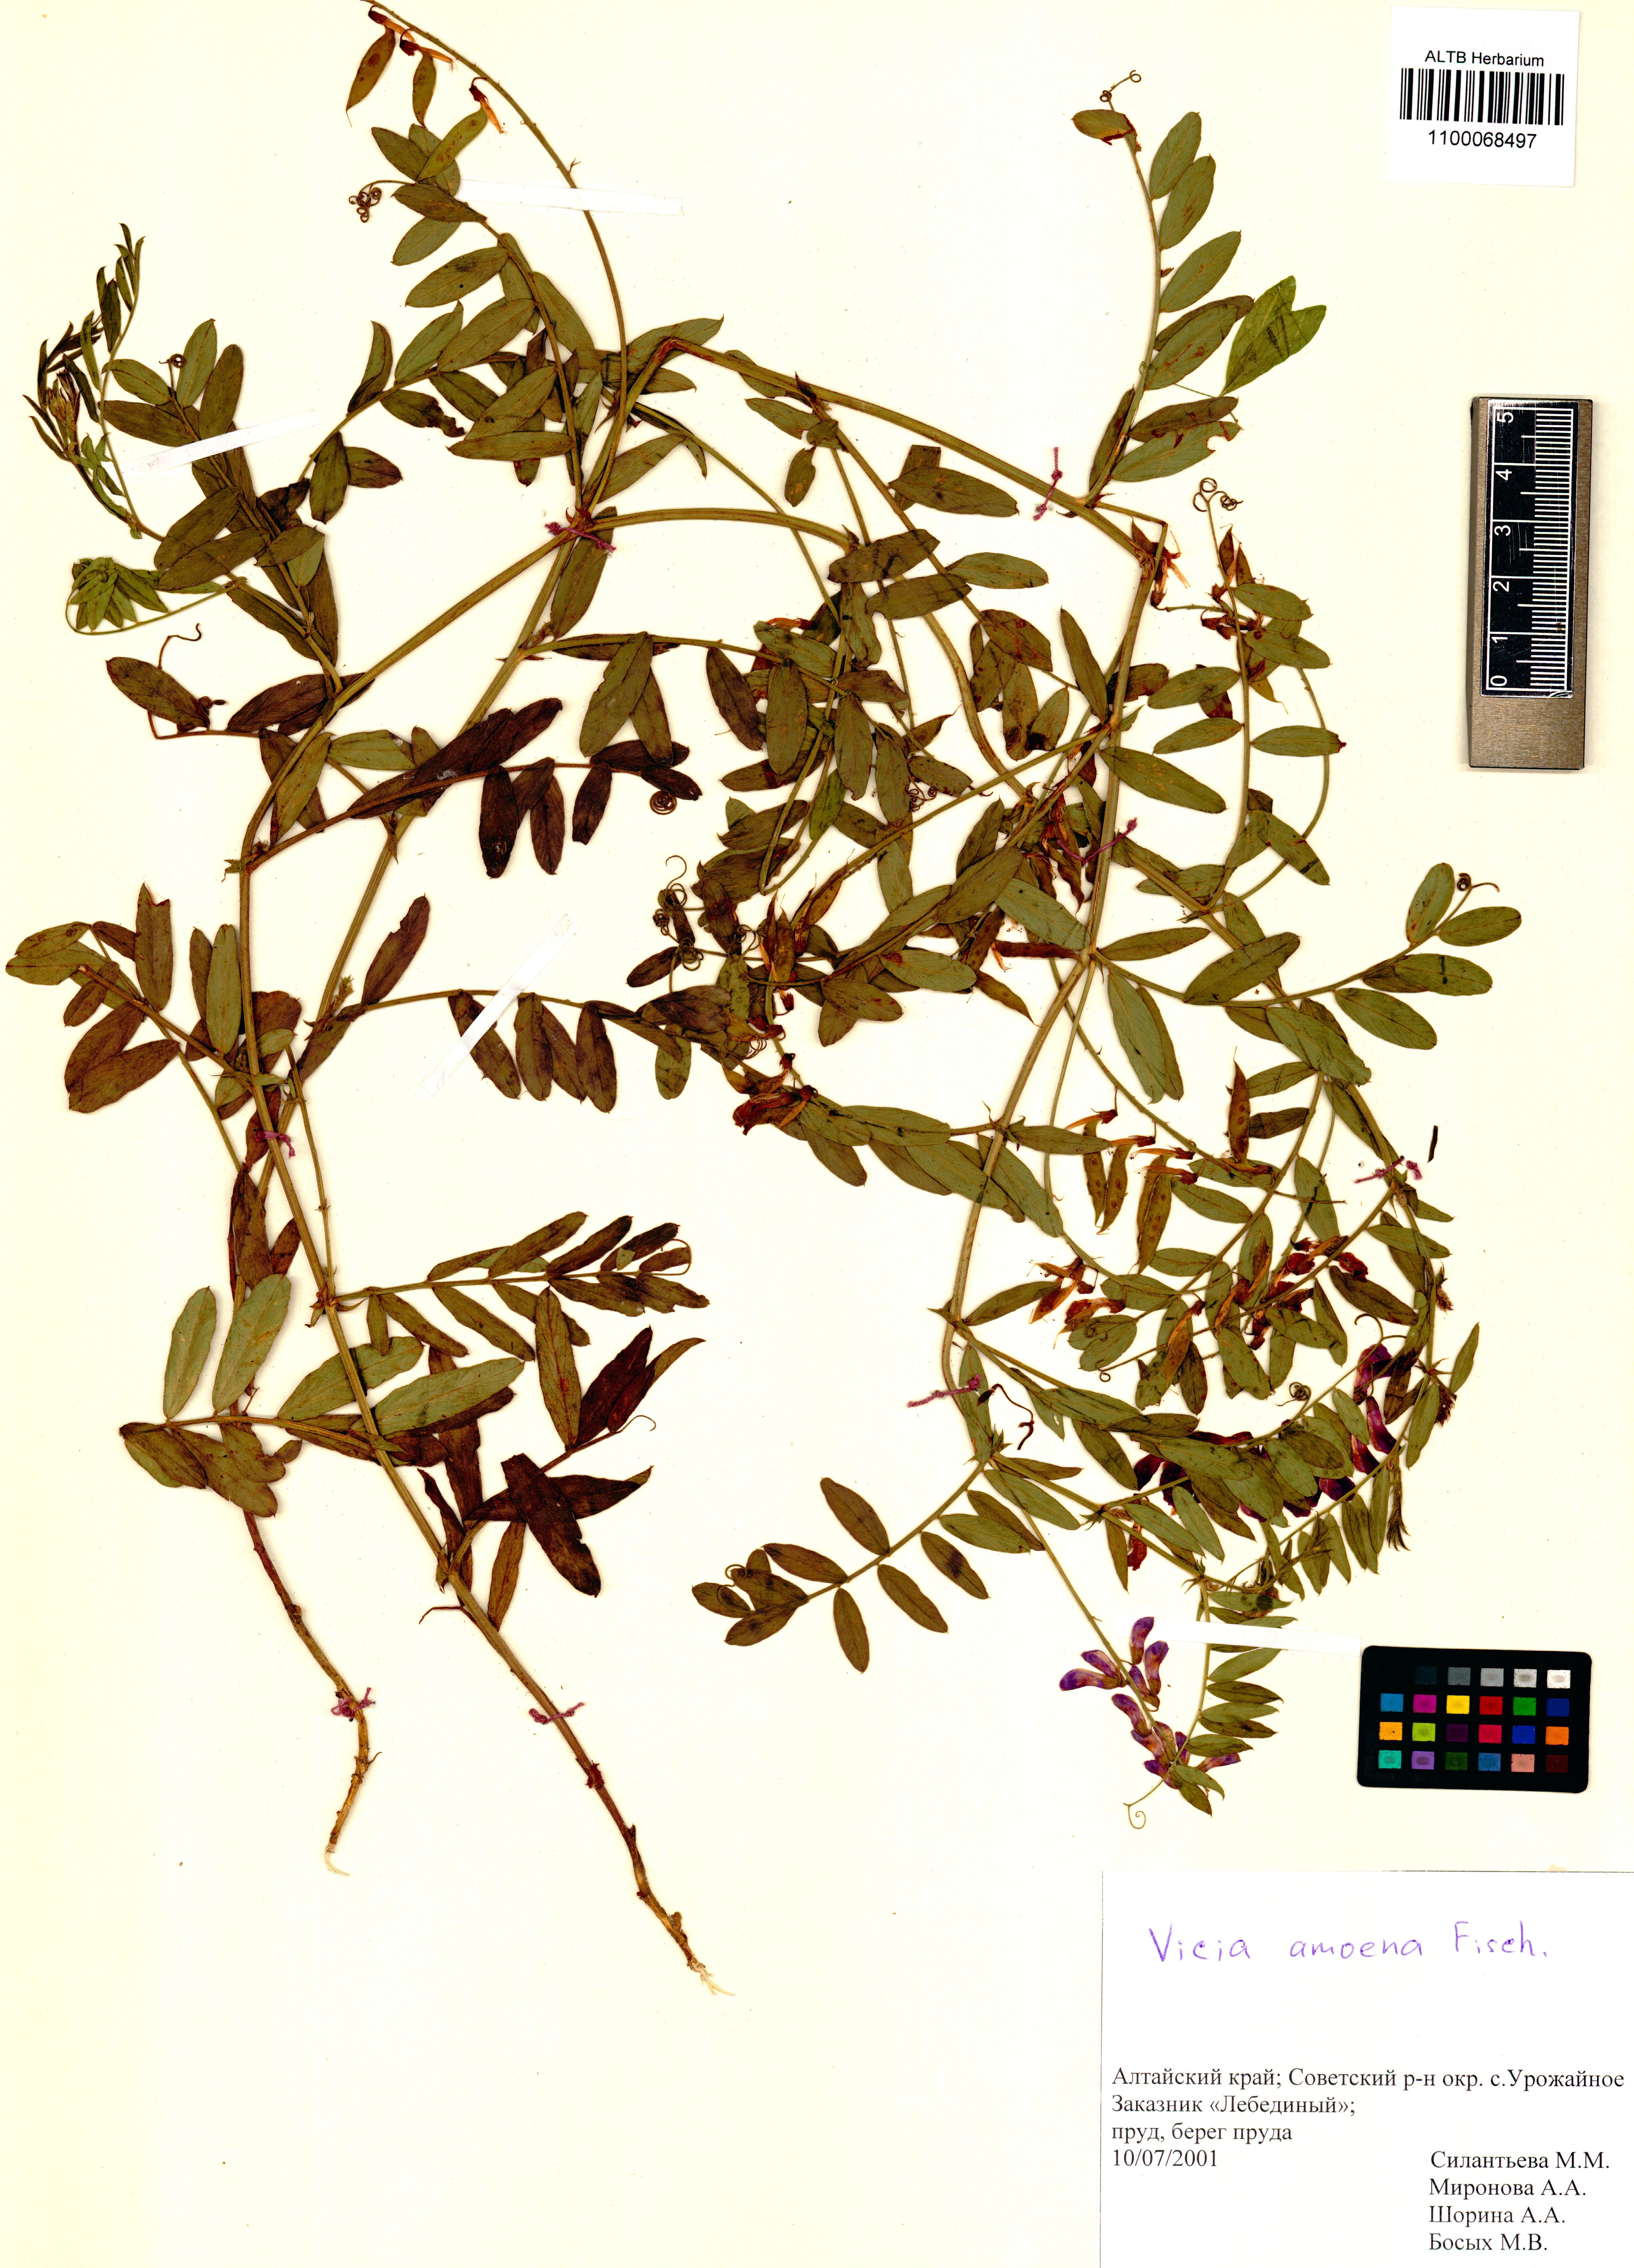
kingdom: Plantae
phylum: Tracheophyta
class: Magnoliopsida
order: Fabales
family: Fabaceae
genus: Vicia
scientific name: Vicia amoena
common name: Cheder ebs
